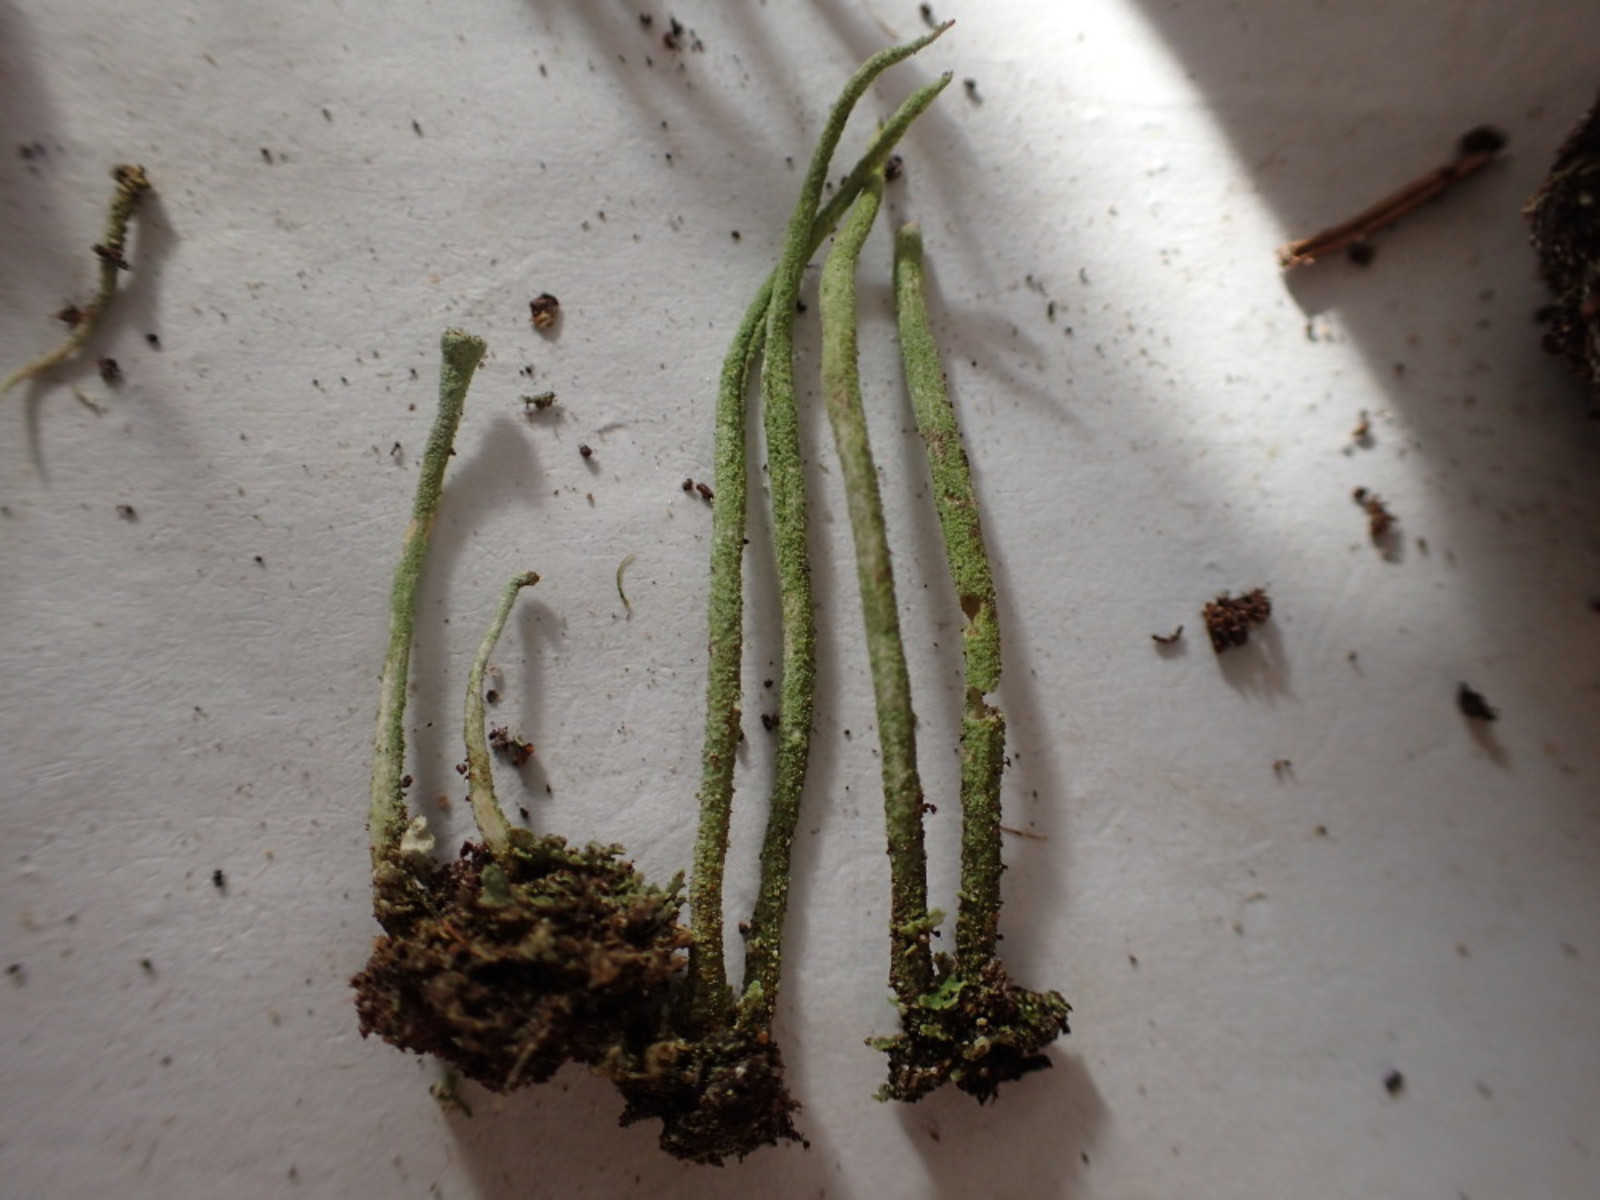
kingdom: Fungi
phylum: Ascomycota
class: Lecanoromycetes
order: Lecanorales
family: Cladoniaceae
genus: Cladonia
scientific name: Cladonia ochrochlora
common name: stød-bægerlav
